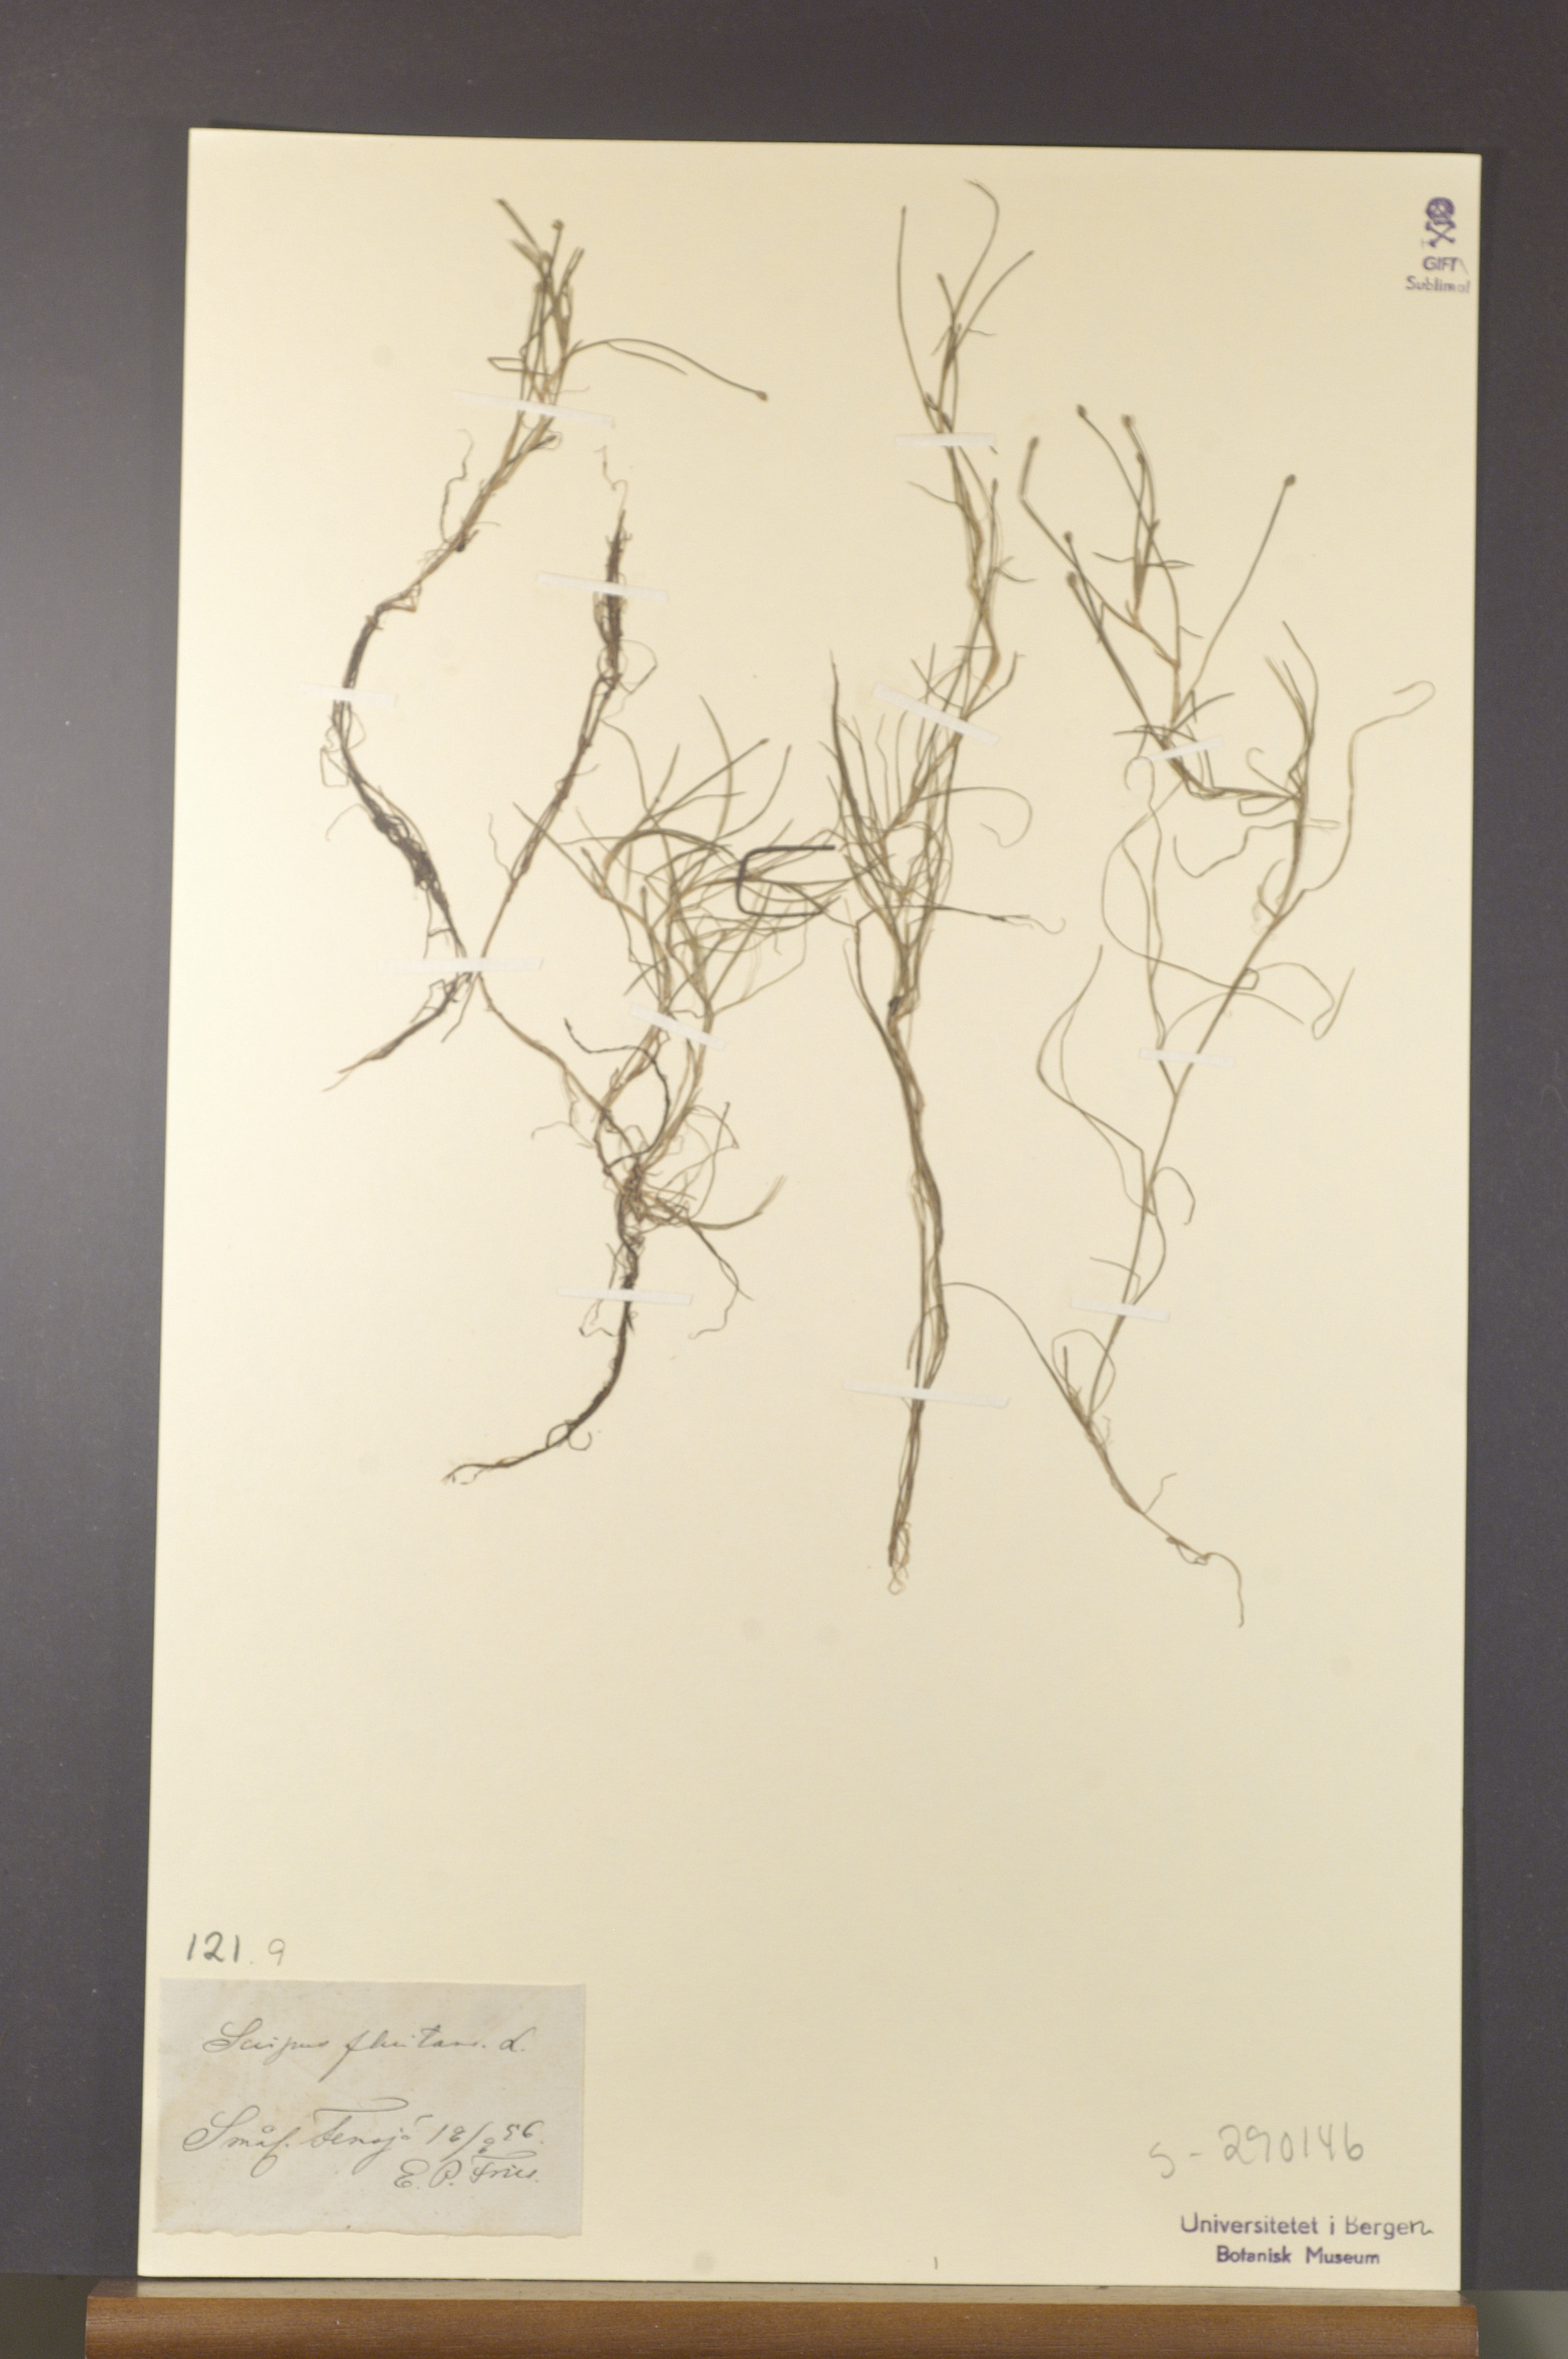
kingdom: Plantae
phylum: Tracheophyta
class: Liliopsida
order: Poales
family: Cyperaceae
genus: Isolepis
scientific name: Isolepis fluitans
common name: Floating club-rush
